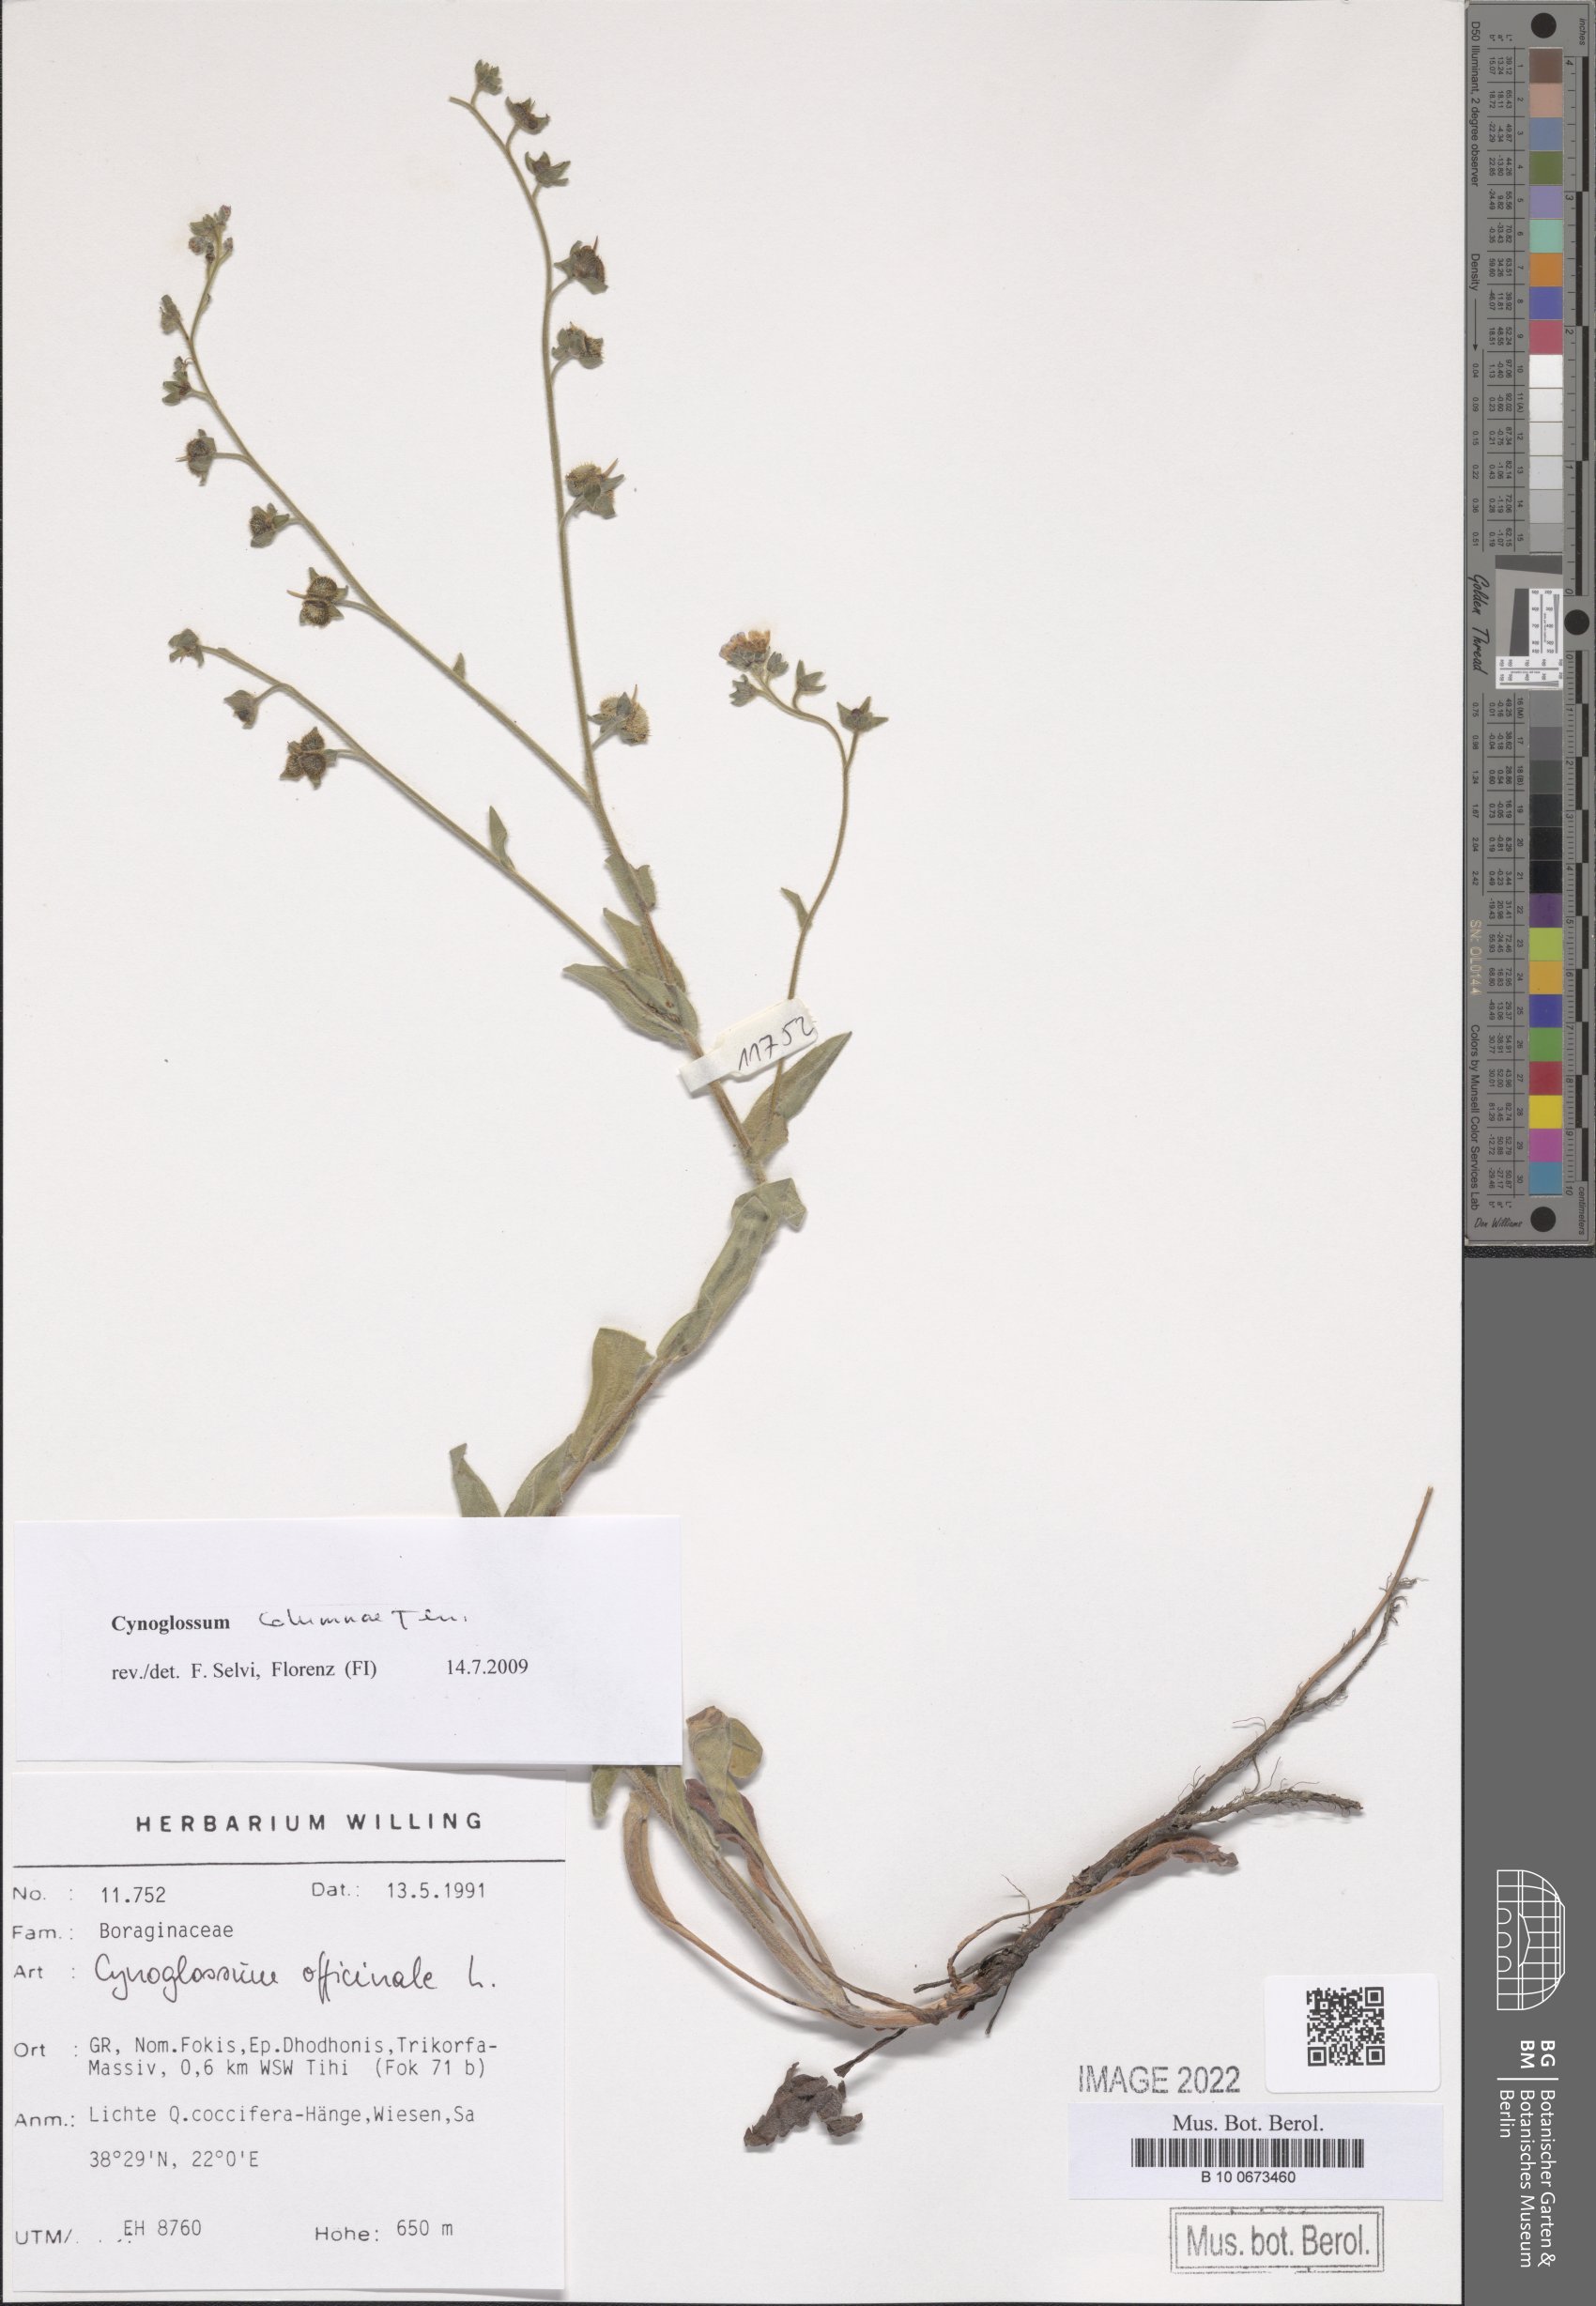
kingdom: Plantae
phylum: Tracheophyta
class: Magnoliopsida
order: Boraginales
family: Boraginaceae
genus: Rindera
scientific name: Rindera columnae
